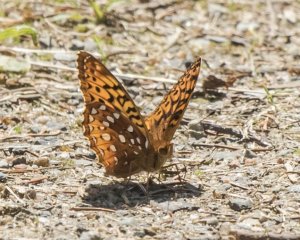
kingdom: Animalia
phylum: Arthropoda
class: Insecta
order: Lepidoptera
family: Nymphalidae
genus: Speyeria
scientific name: Speyeria cybele
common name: Great Spangled Fritillary
